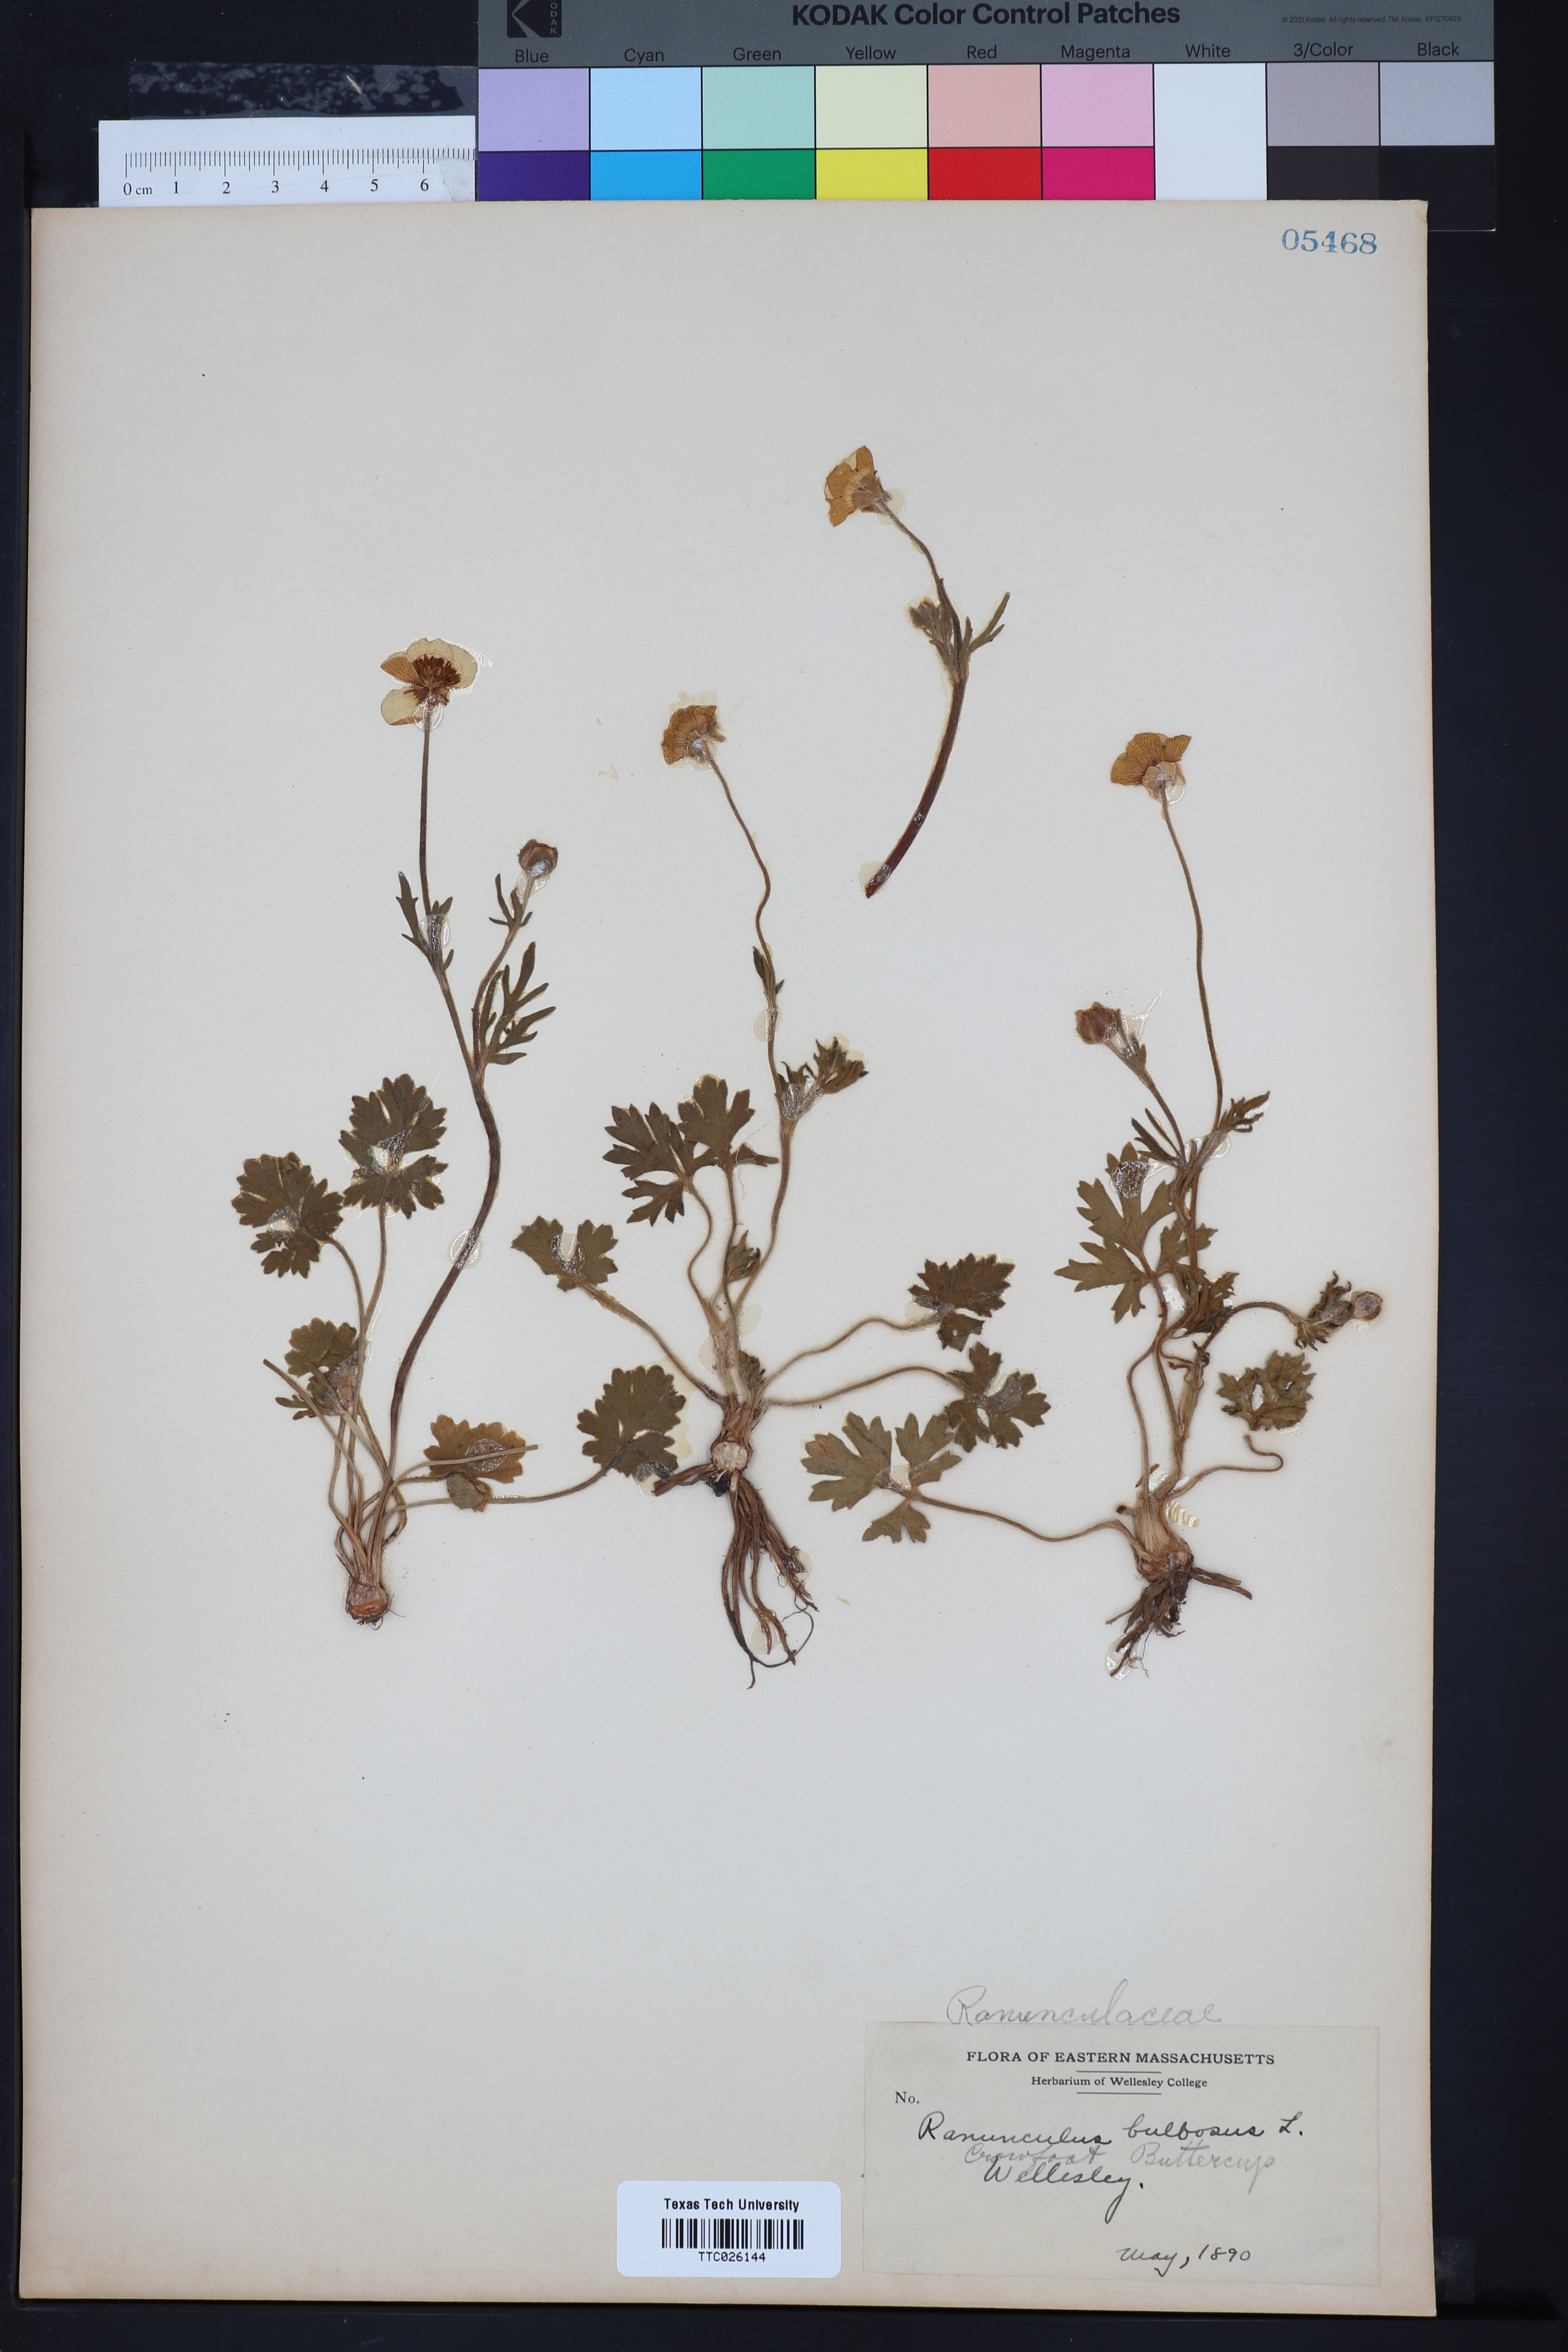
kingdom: Plantae
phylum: Tracheophyta
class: Magnoliopsida
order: Ranunculales
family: Ranunculaceae
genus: Ranunculus
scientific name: Ranunculus bulbosus
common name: Bulbous buttercup
